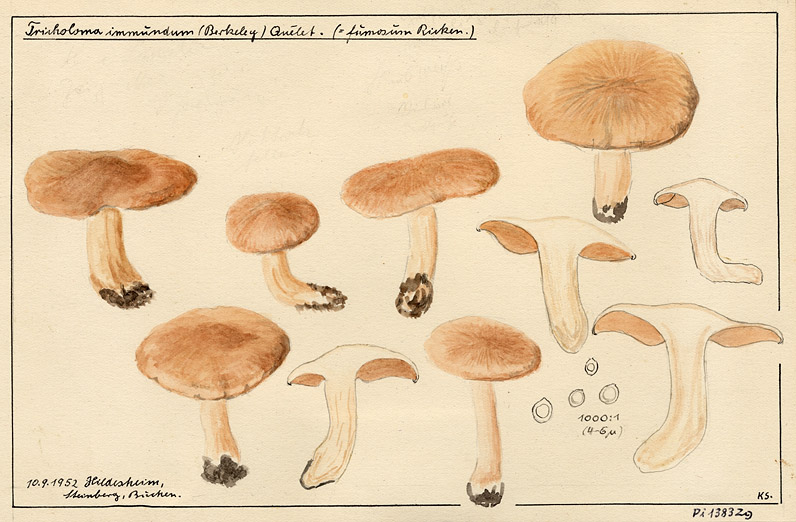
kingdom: Fungi
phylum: Basidiomycota
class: Agaricomycetes
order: Agaricales
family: Lyophyllaceae
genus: Lyophyllum
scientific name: Lyophyllum immundum
